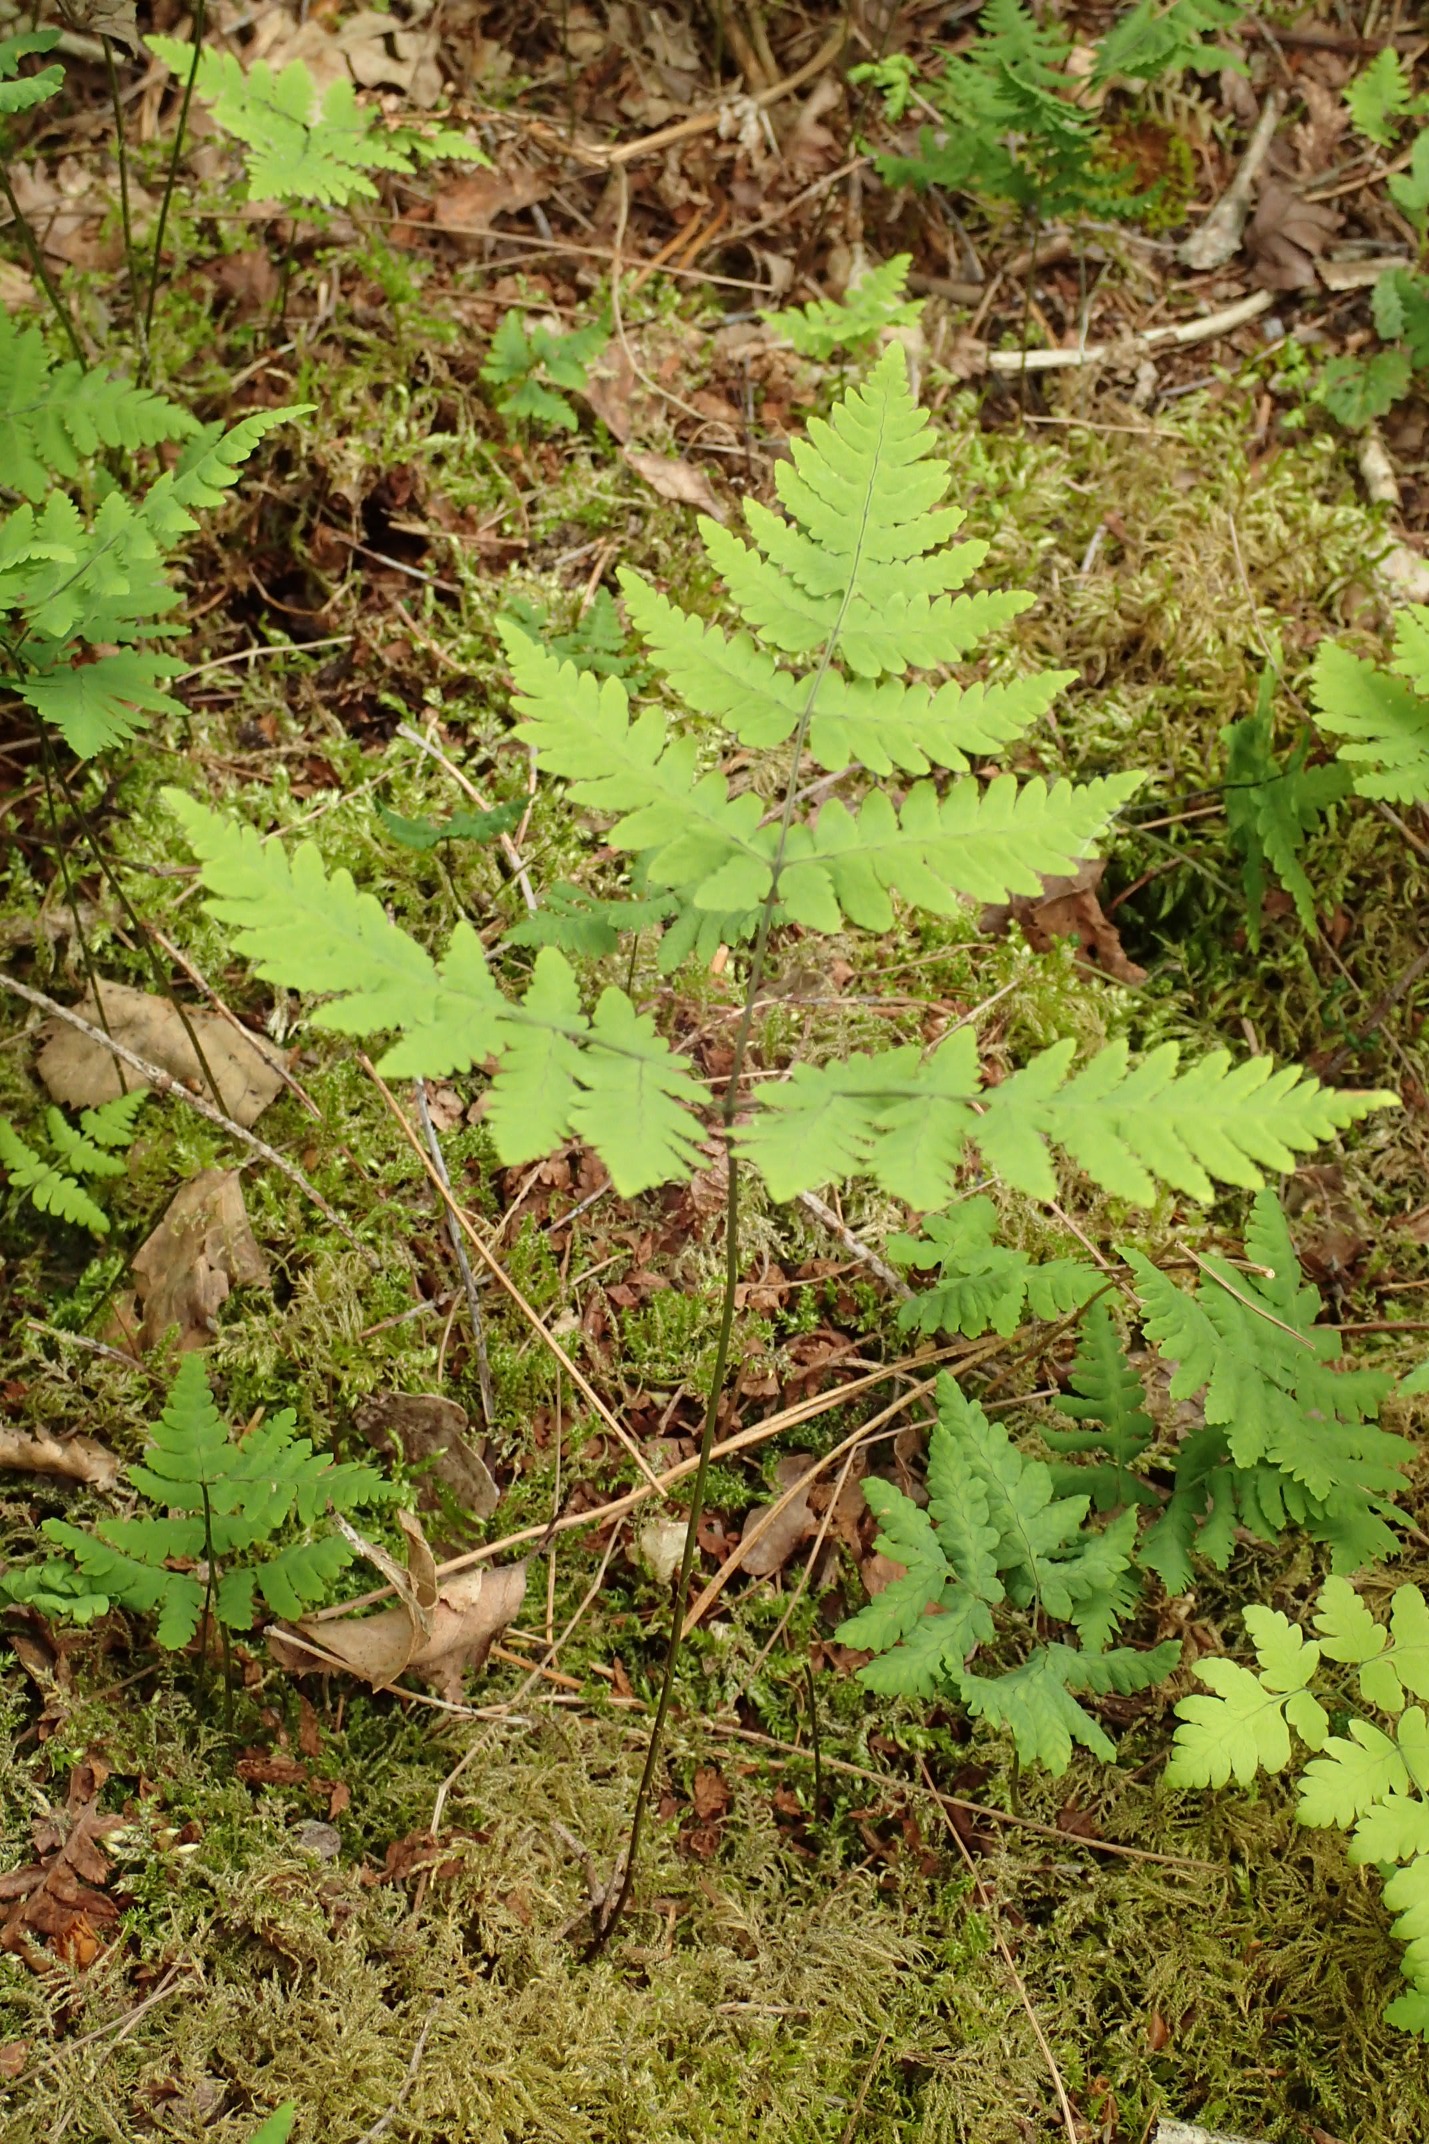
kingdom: Plantae
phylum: Tracheophyta
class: Polypodiopsida
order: Polypodiales
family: Cystopteridaceae
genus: Gymnocarpium
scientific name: Gymnocarpium dryopteris
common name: Tredelt egebregne
